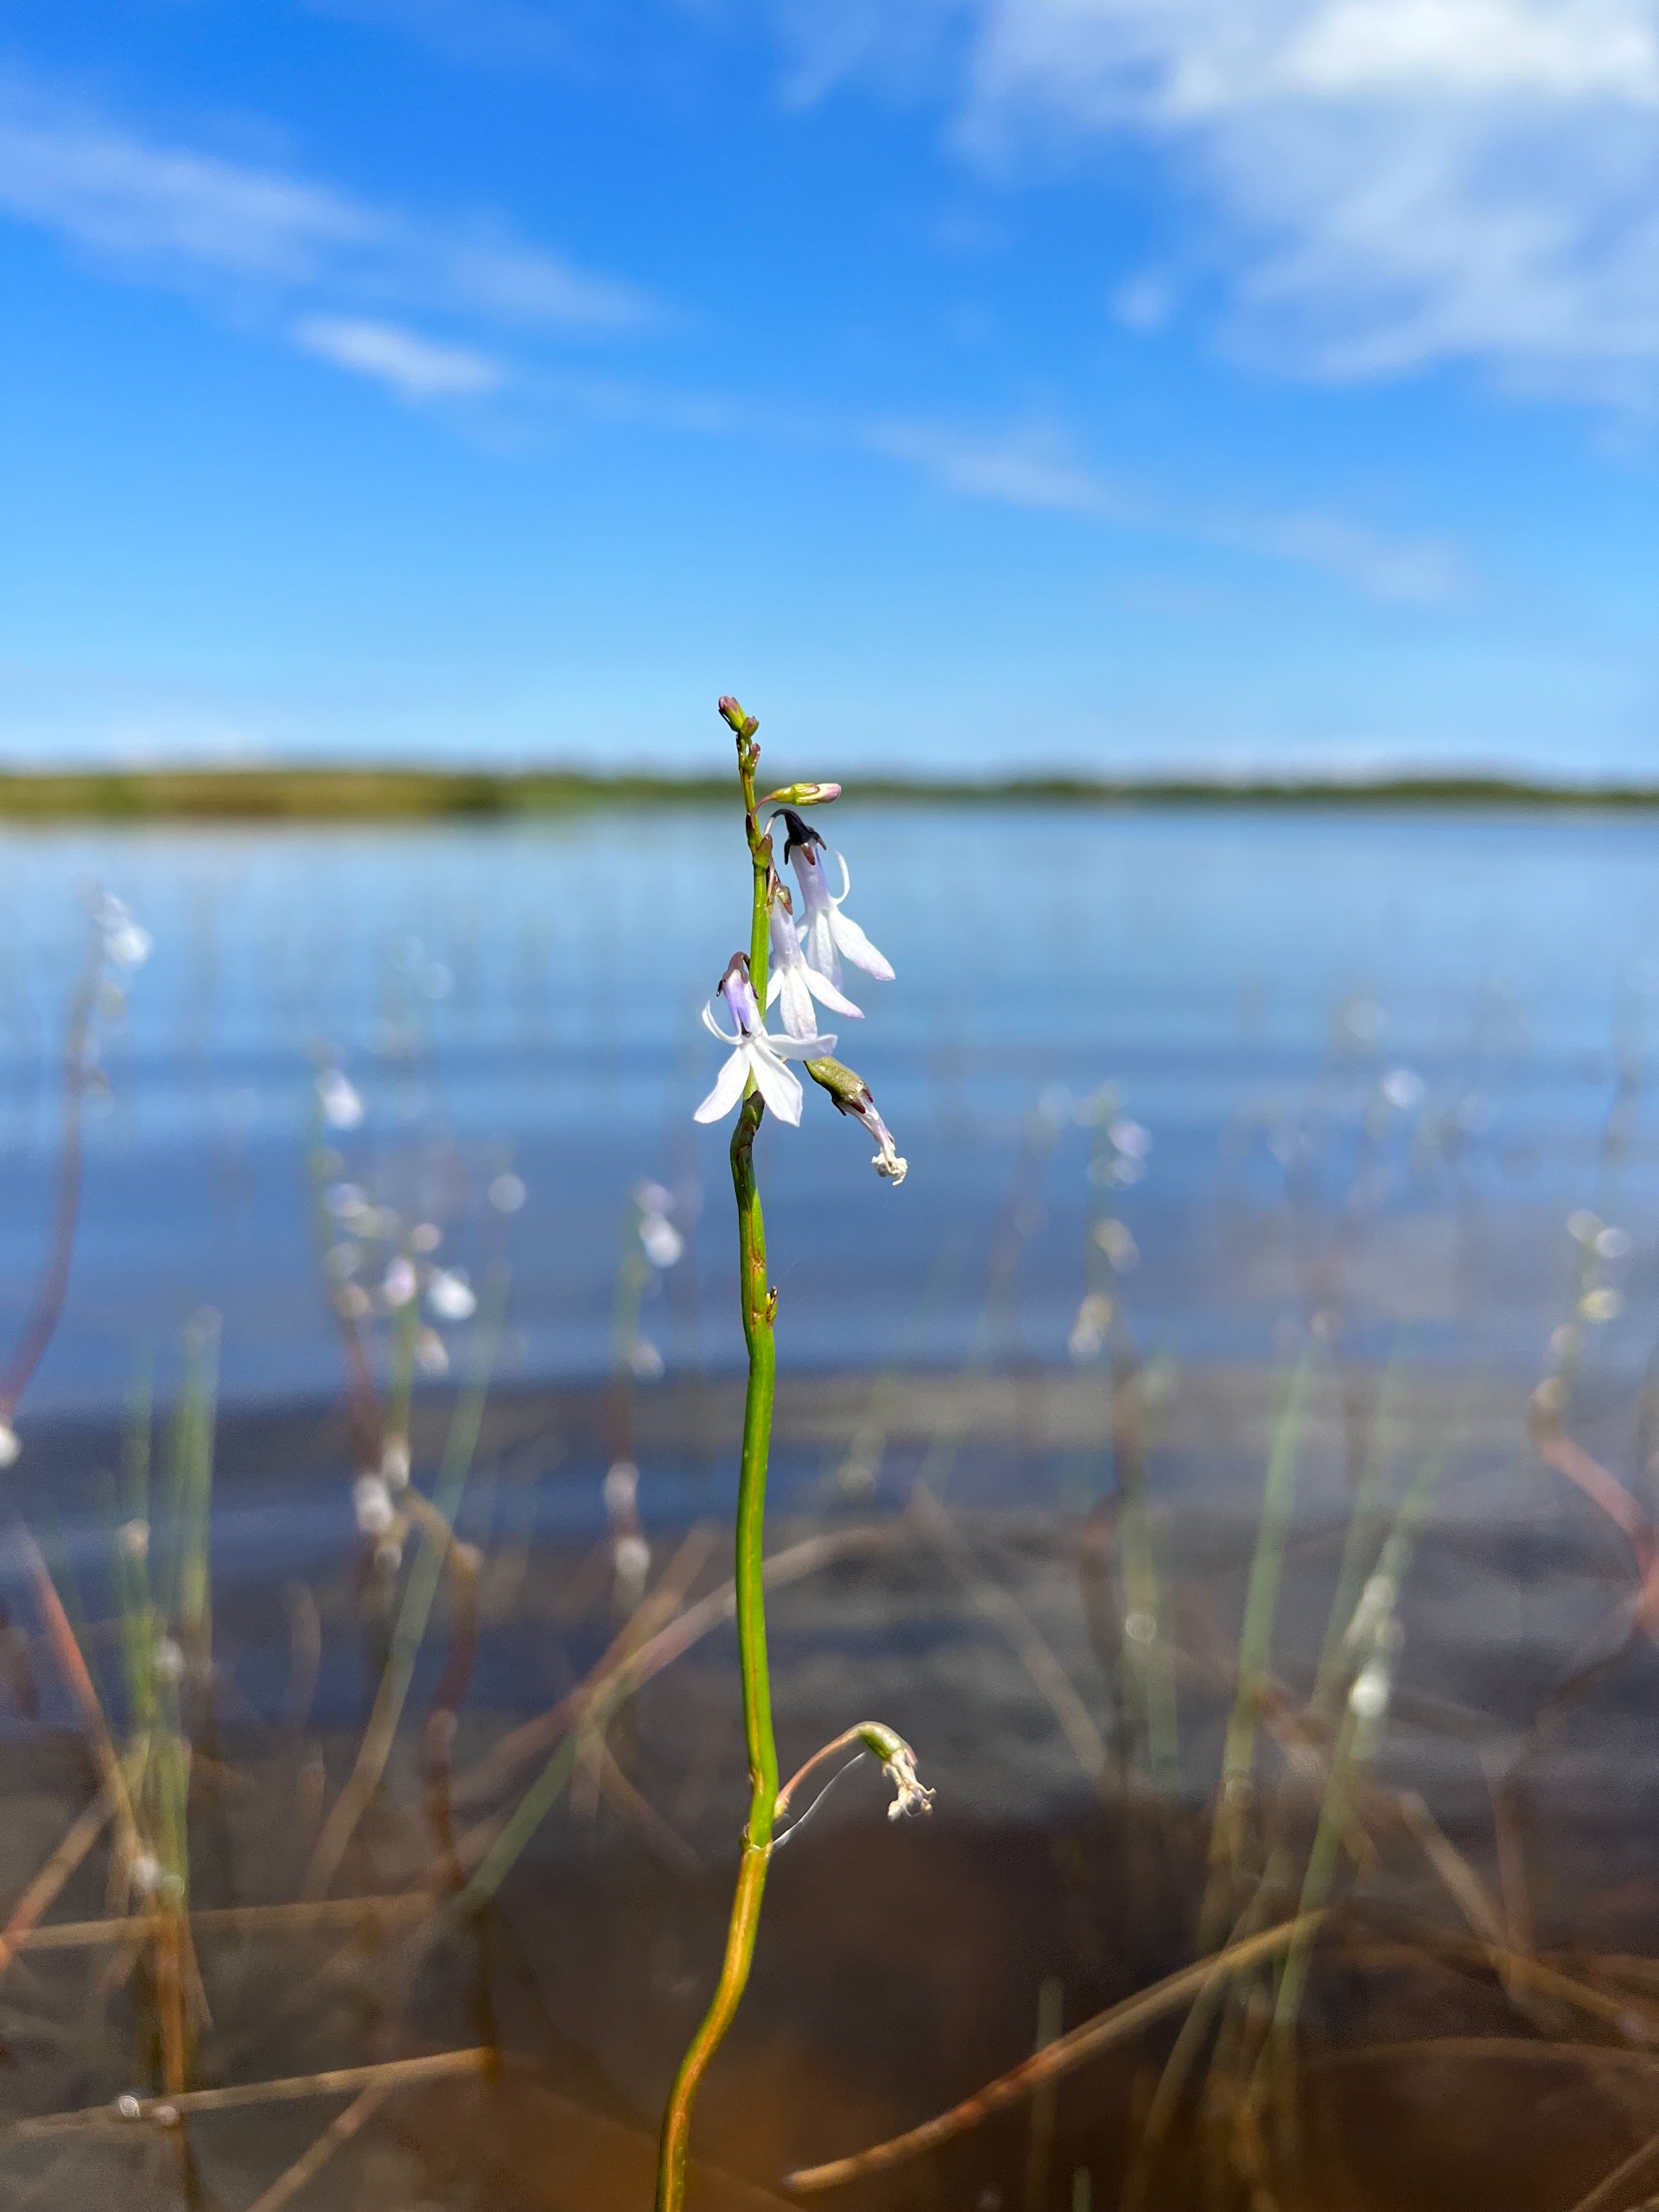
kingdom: Plantae
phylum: Tracheophyta
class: Magnoliopsida
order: Asterales
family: Campanulaceae
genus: Lobelia
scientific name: Lobelia dortmanna
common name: Tvepibet lobelie
